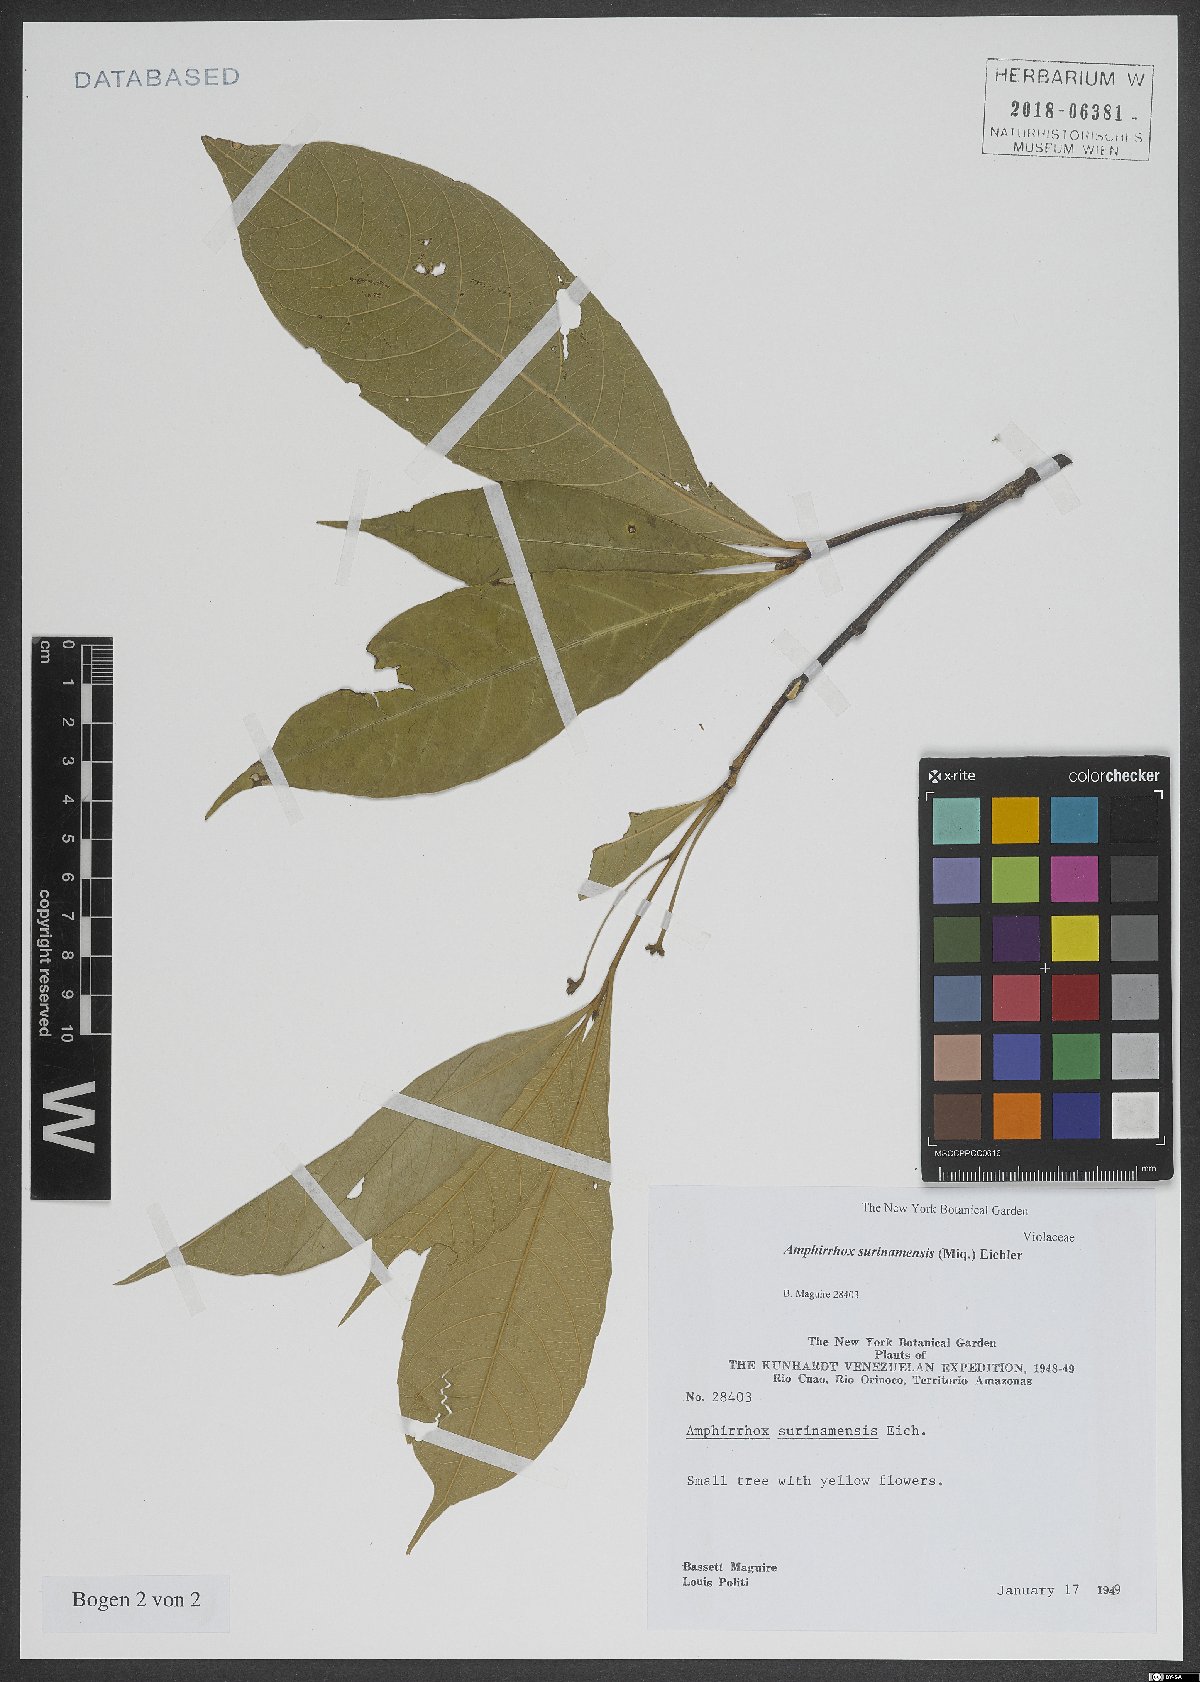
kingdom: Plantae
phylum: Tracheophyta
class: Magnoliopsida
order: Malpighiales
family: Violaceae
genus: Amphirrhox
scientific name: Amphirrhox longifolia
